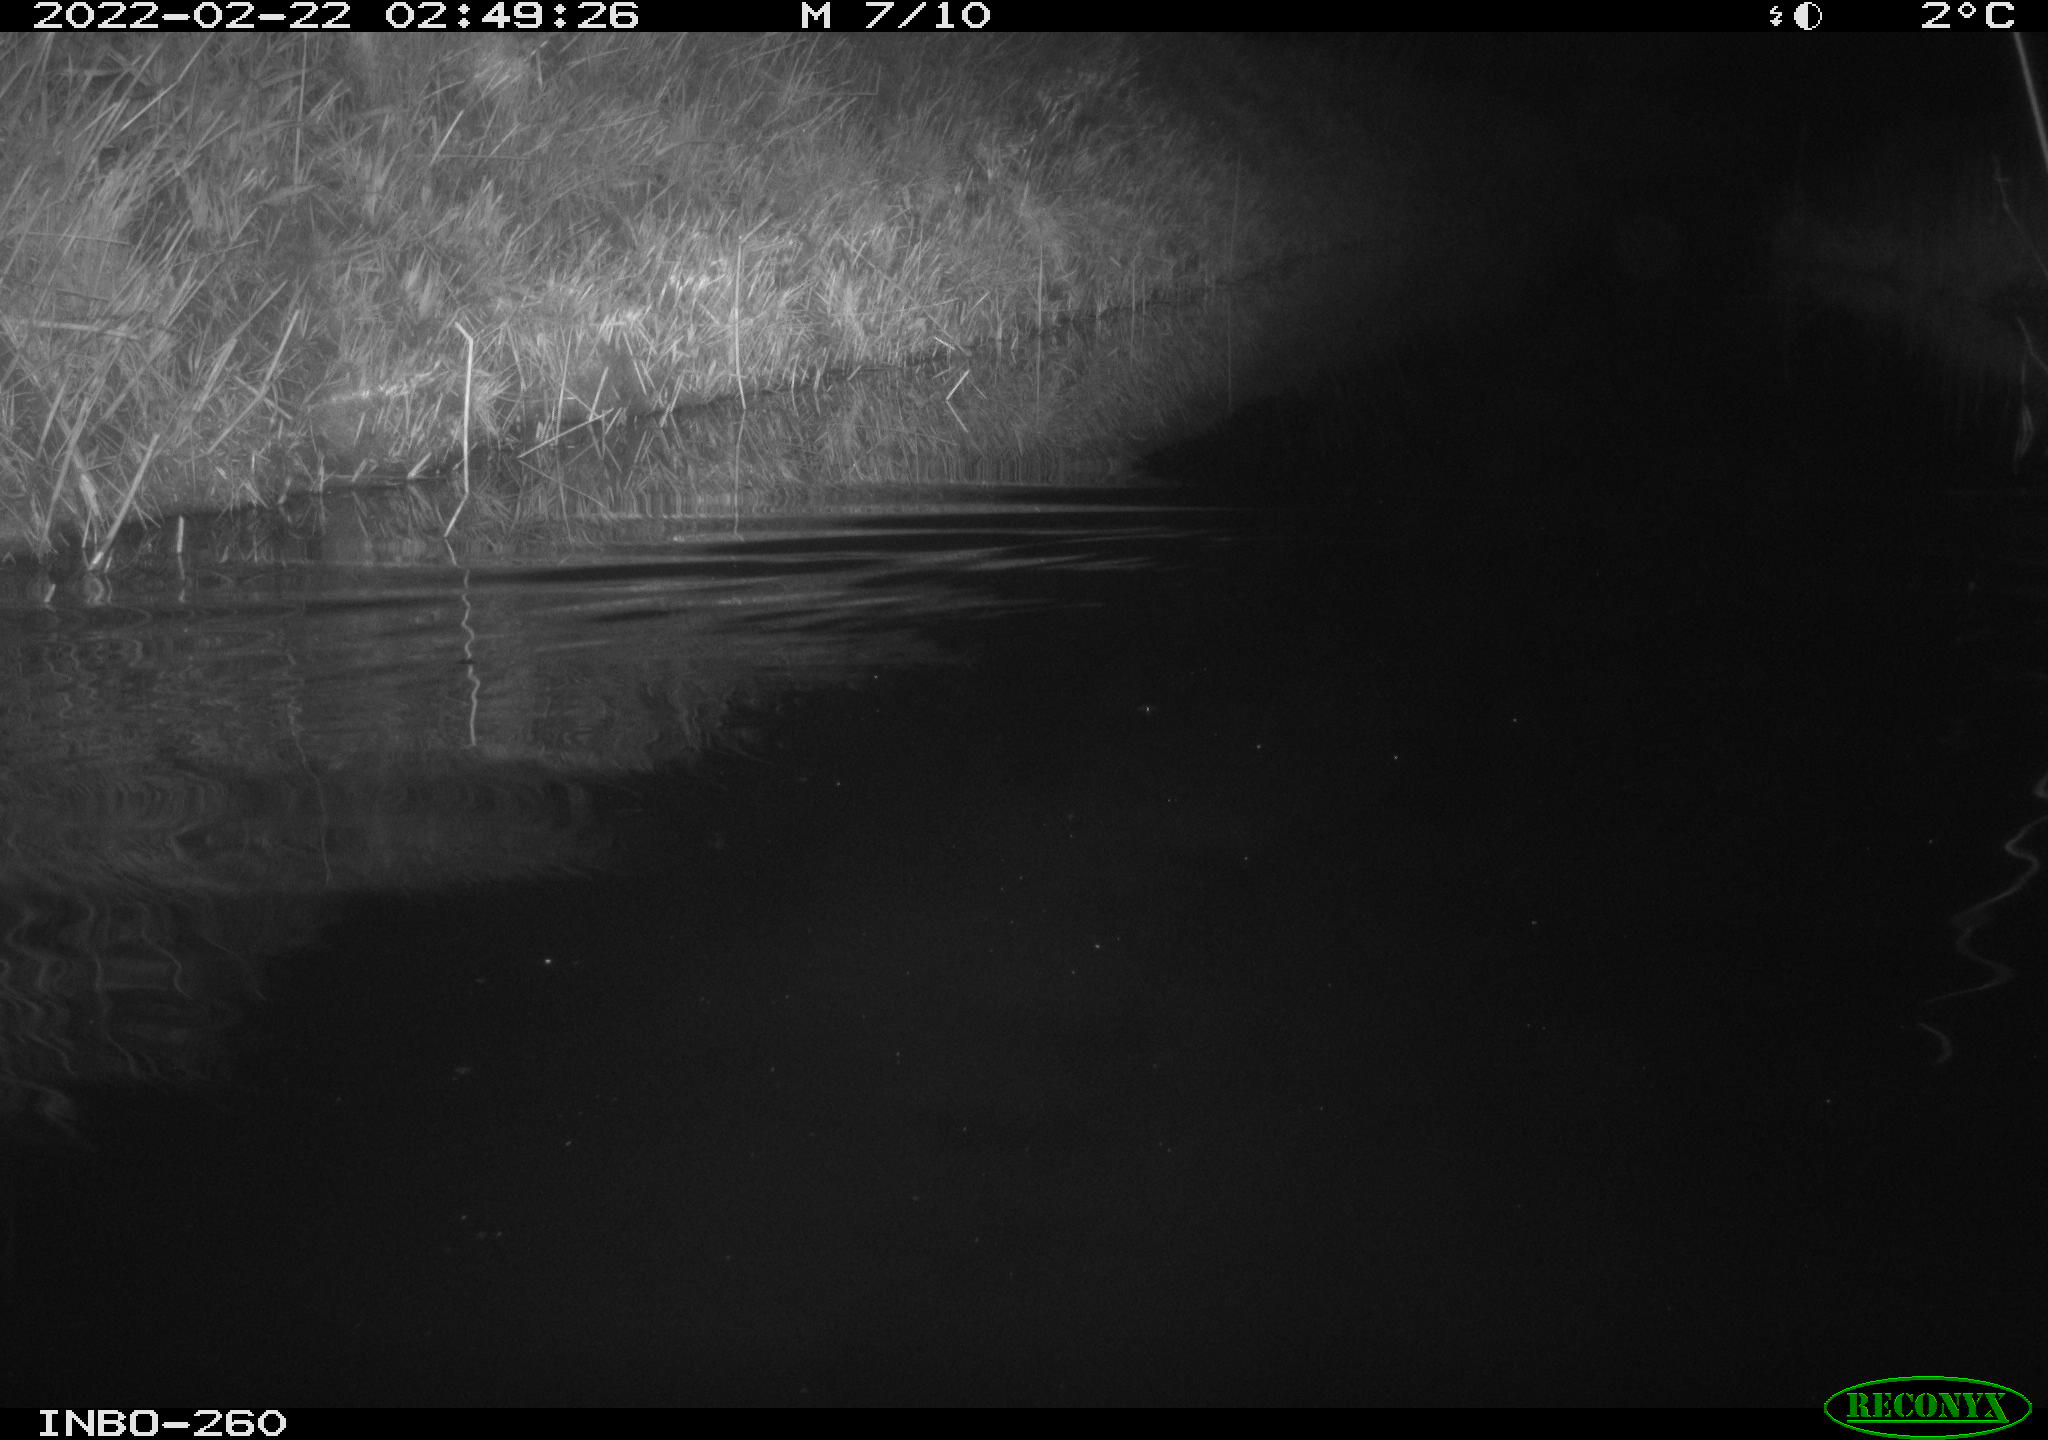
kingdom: Animalia
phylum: Chordata
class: Mammalia
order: Rodentia
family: Cricetidae
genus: Ondatra
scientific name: Ondatra zibethicus
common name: Muskrat
